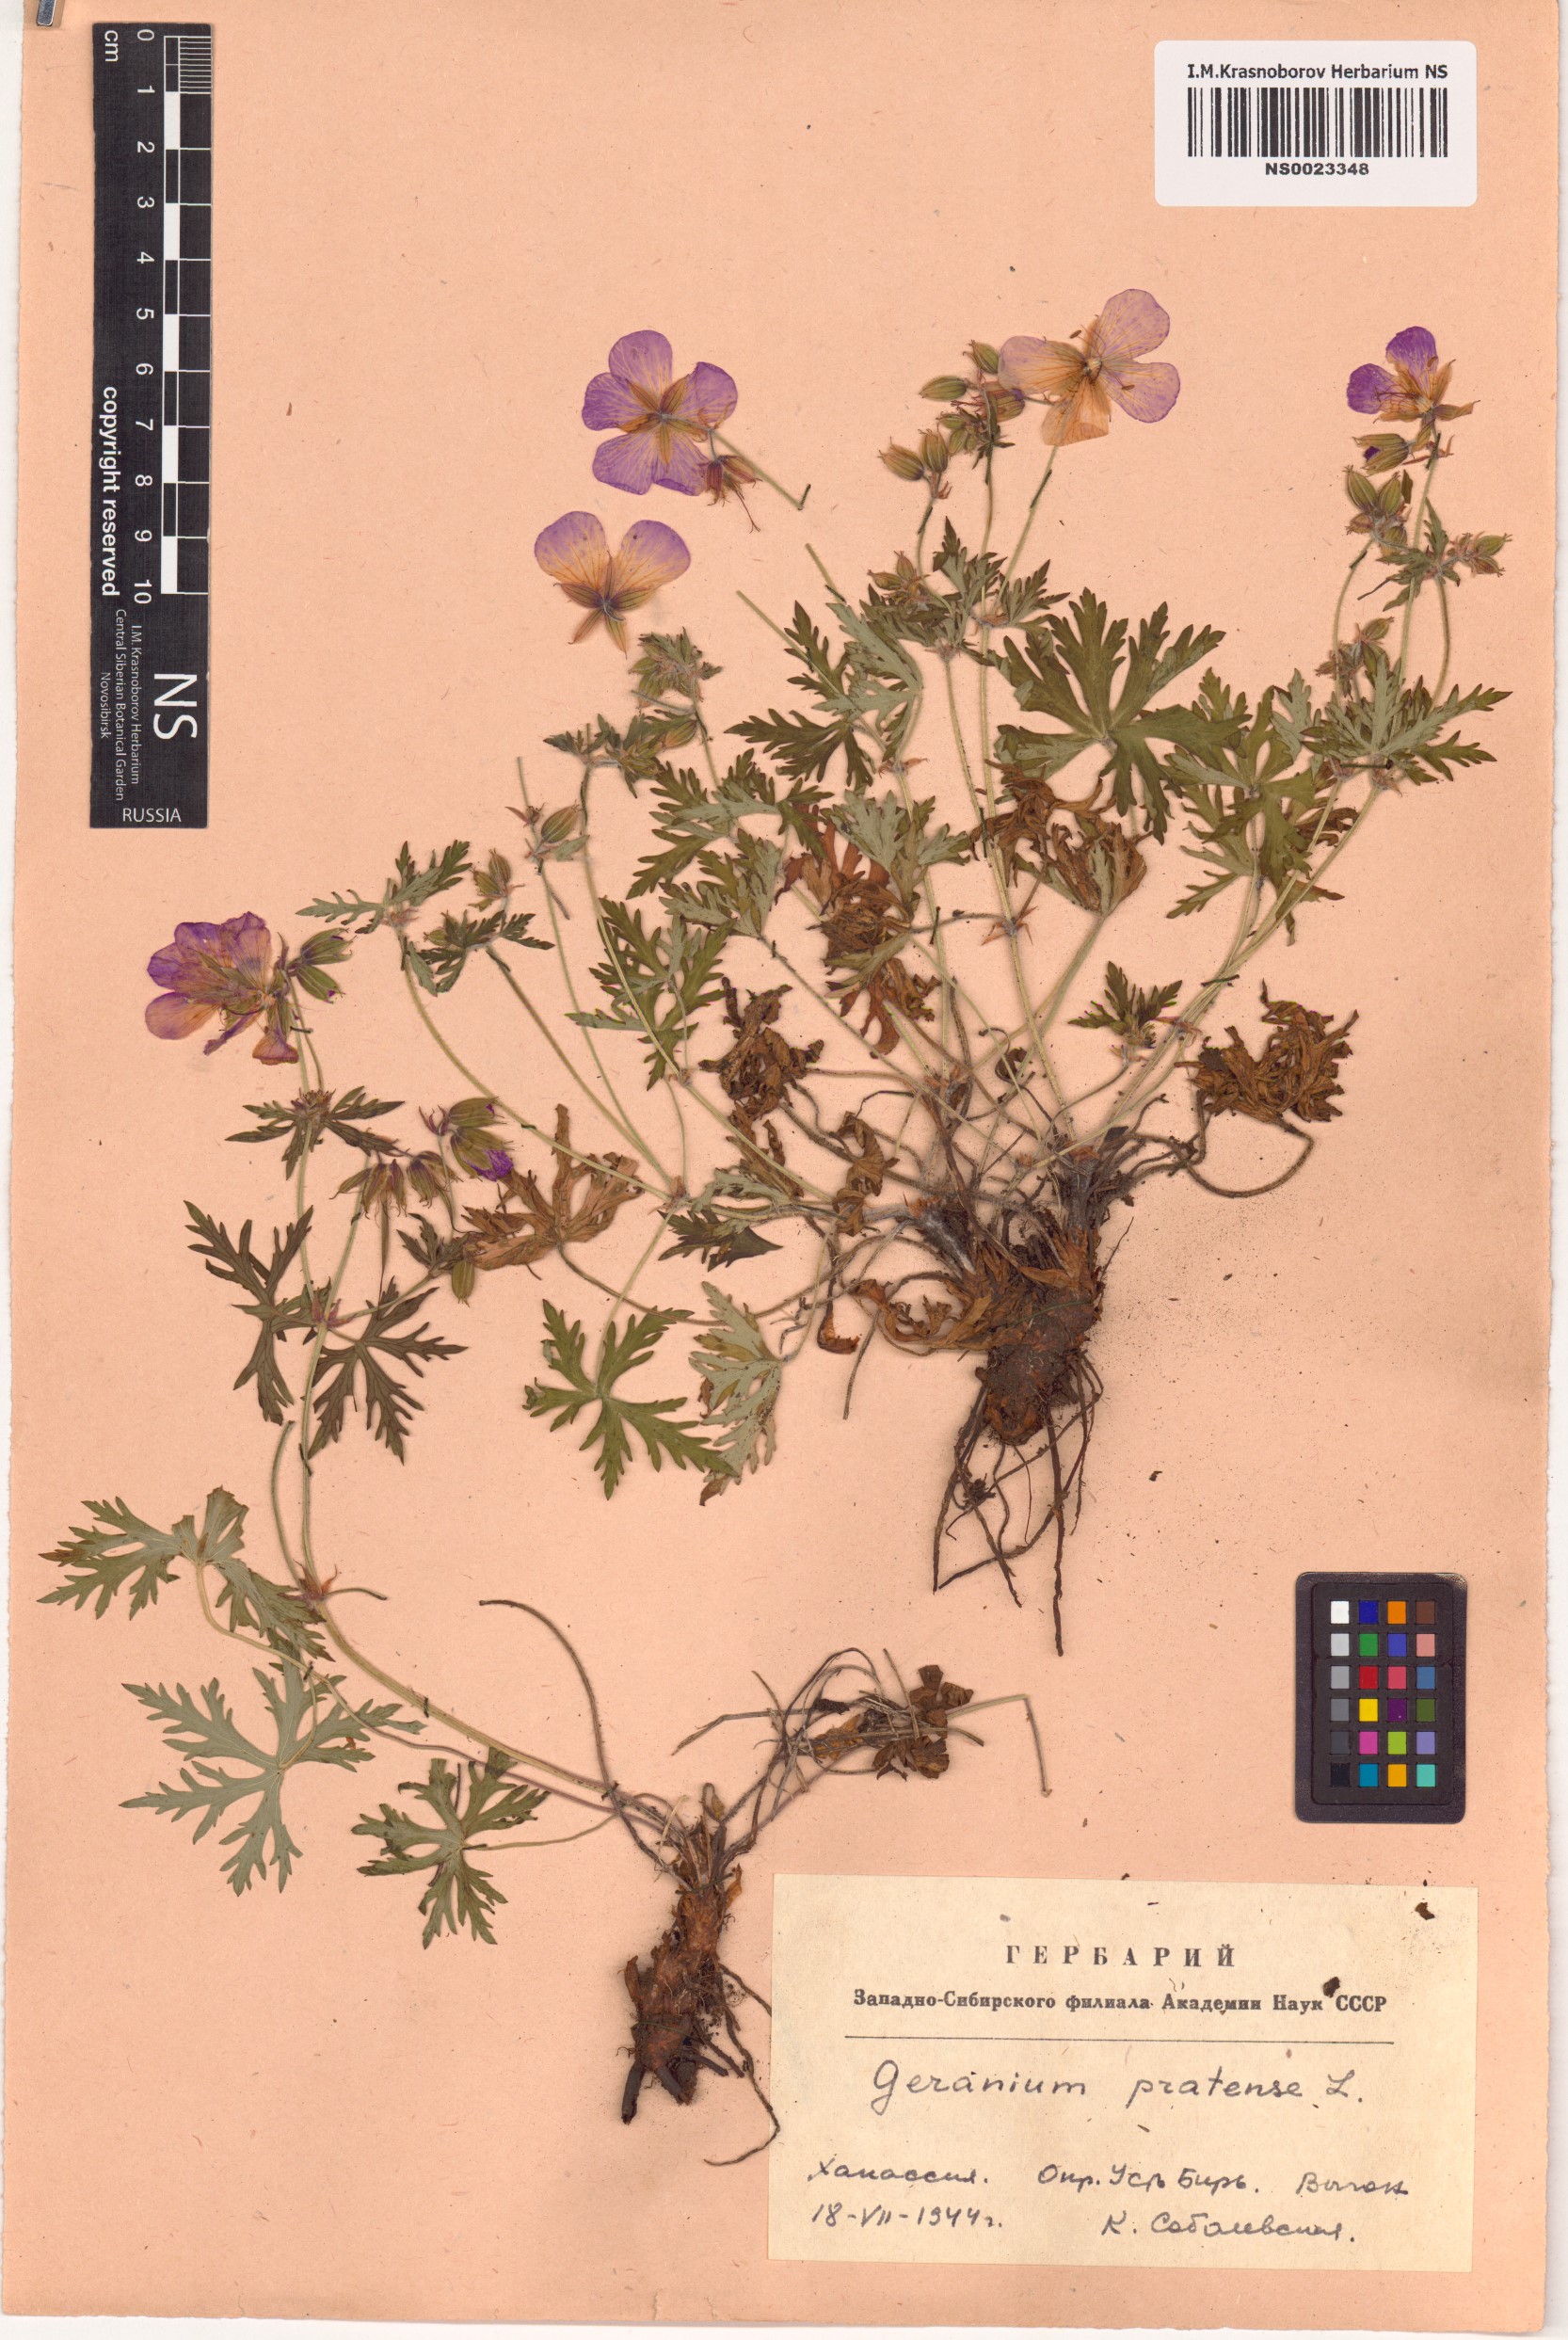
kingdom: Plantae
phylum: Tracheophyta
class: Magnoliopsida
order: Geraniales
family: Geraniaceae
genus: Geranium
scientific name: Geranium pratense
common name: Meadow crane's-bill
